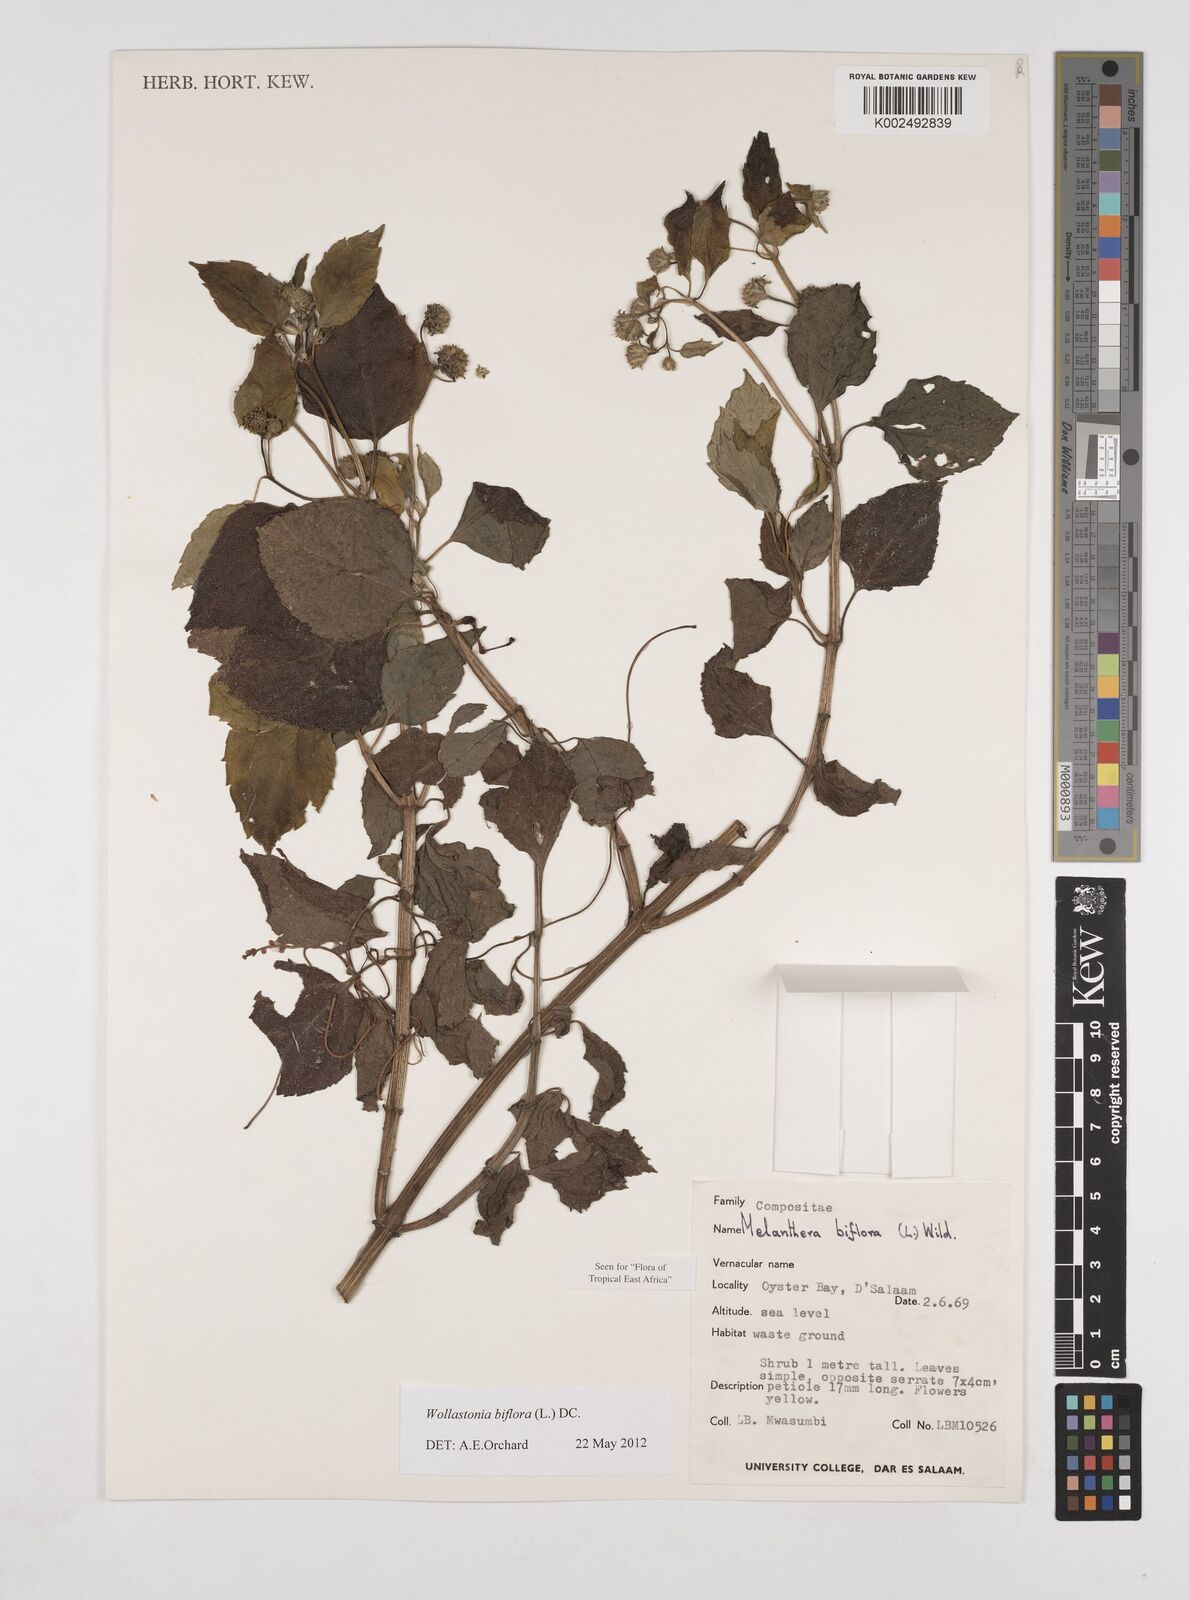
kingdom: Plantae
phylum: Tracheophyta
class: Magnoliopsida
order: Asterales
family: Asteraceae
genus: Wollastonia
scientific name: Wollastonia biflora
